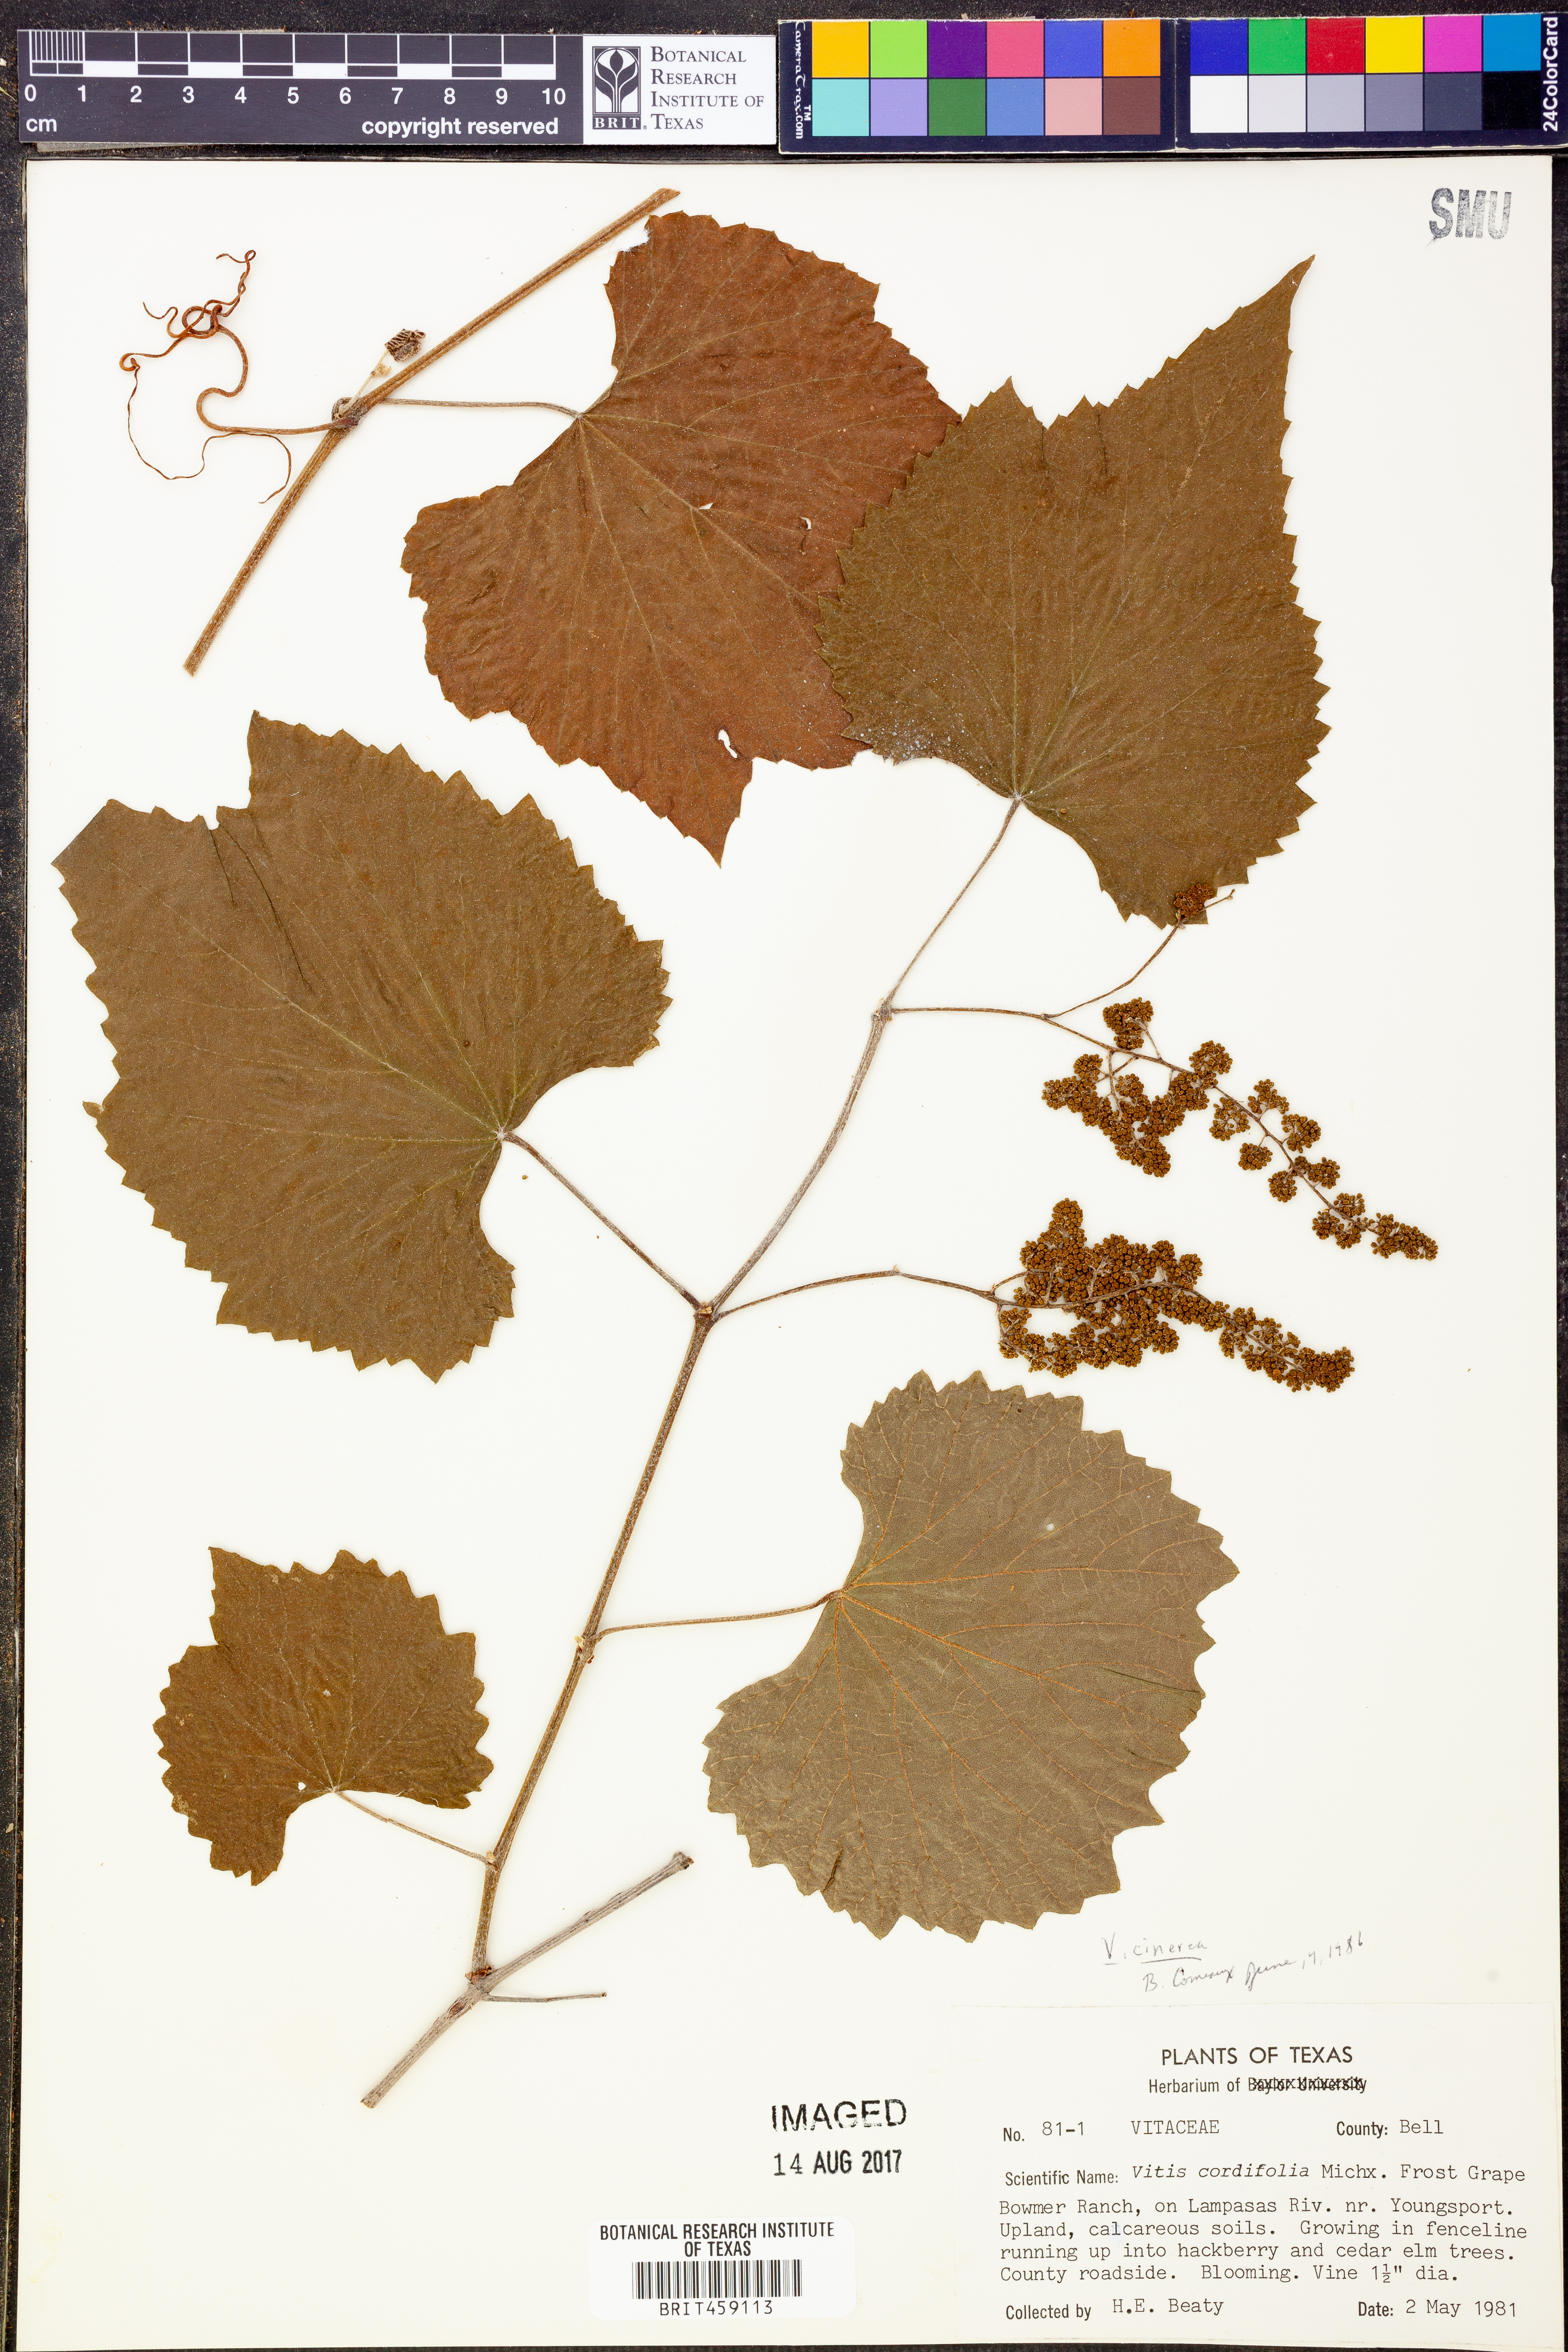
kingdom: Plantae
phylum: Tracheophyta
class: Magnoliopsida
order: Vitales
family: Vitaceae
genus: Vitis
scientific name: Vitis cinerea
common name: Ashy grape
